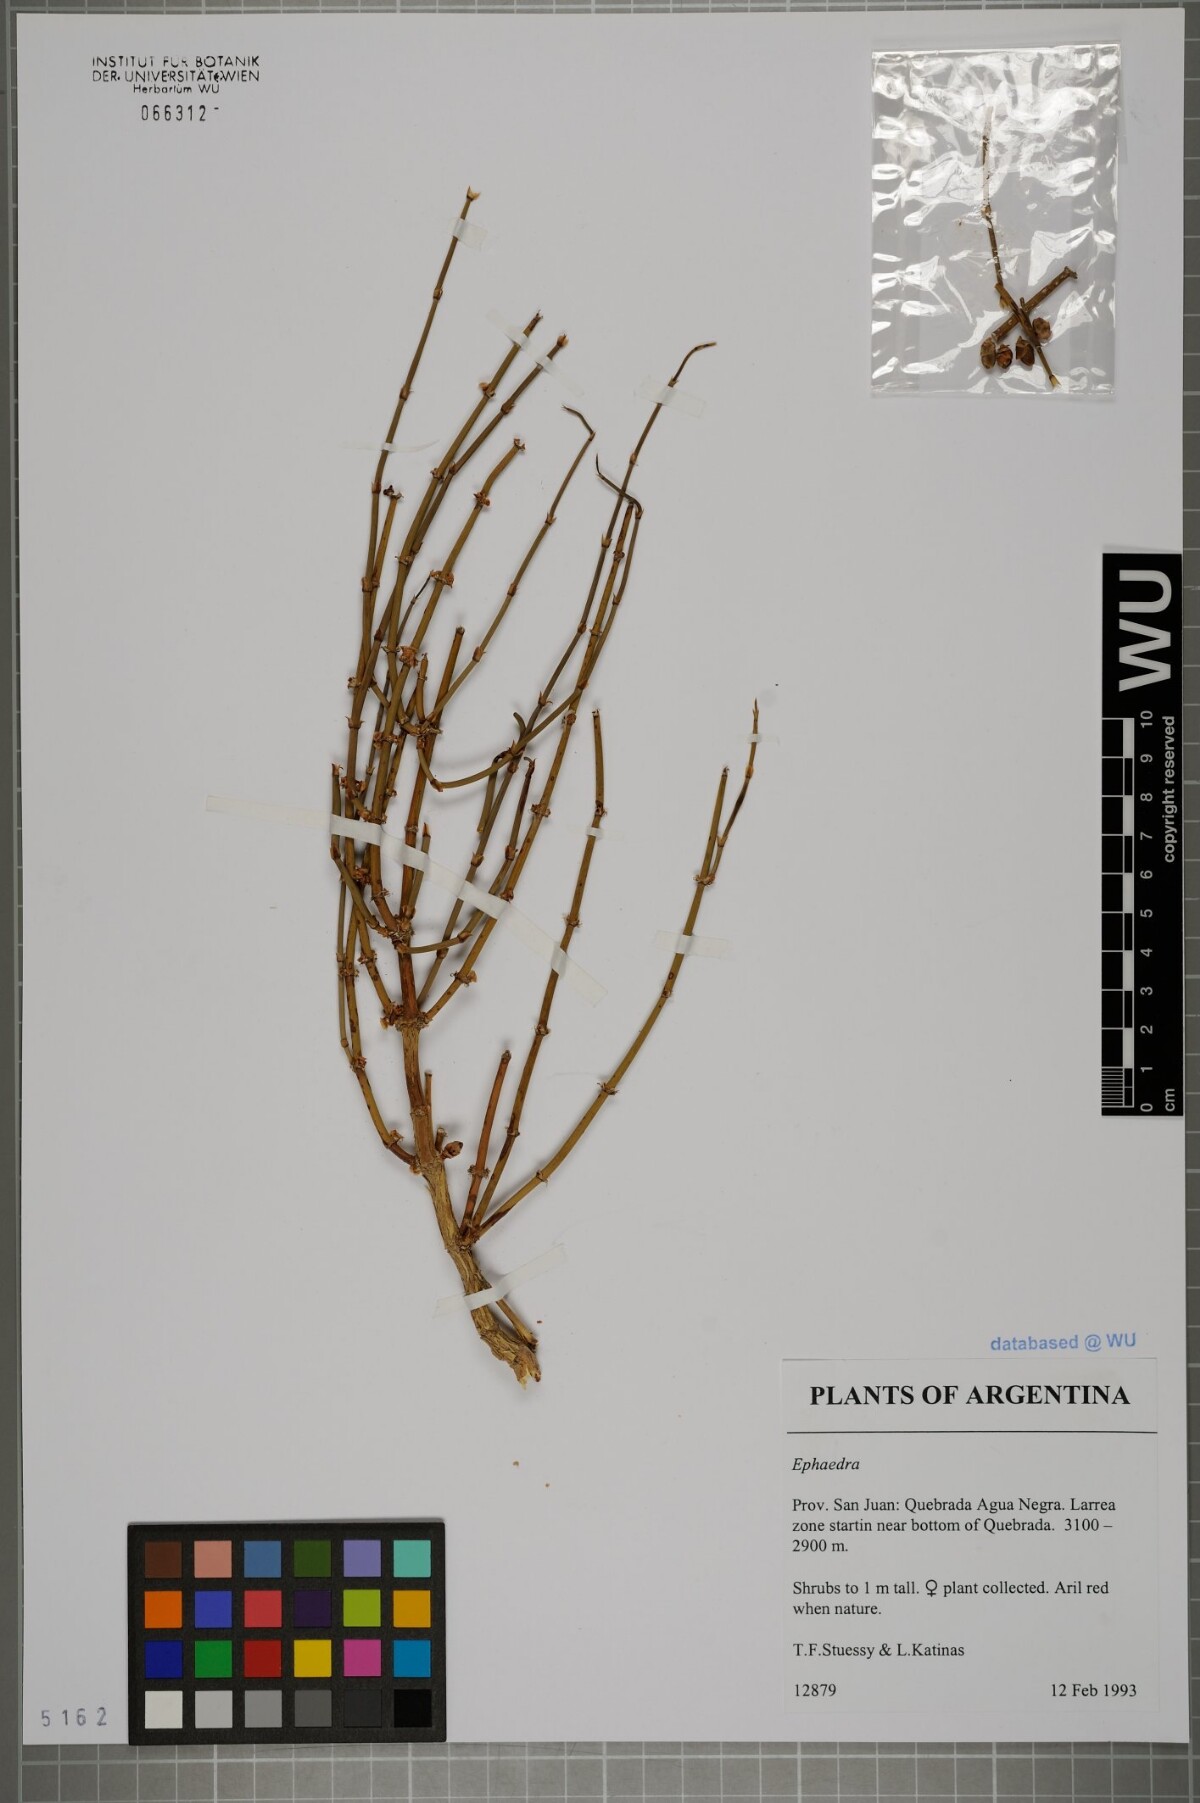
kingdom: Plantae
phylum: Tracheophyta
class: Gnetopsida
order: Ephedrales
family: Ephedraceae
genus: Ephedra
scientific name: Ephedra
